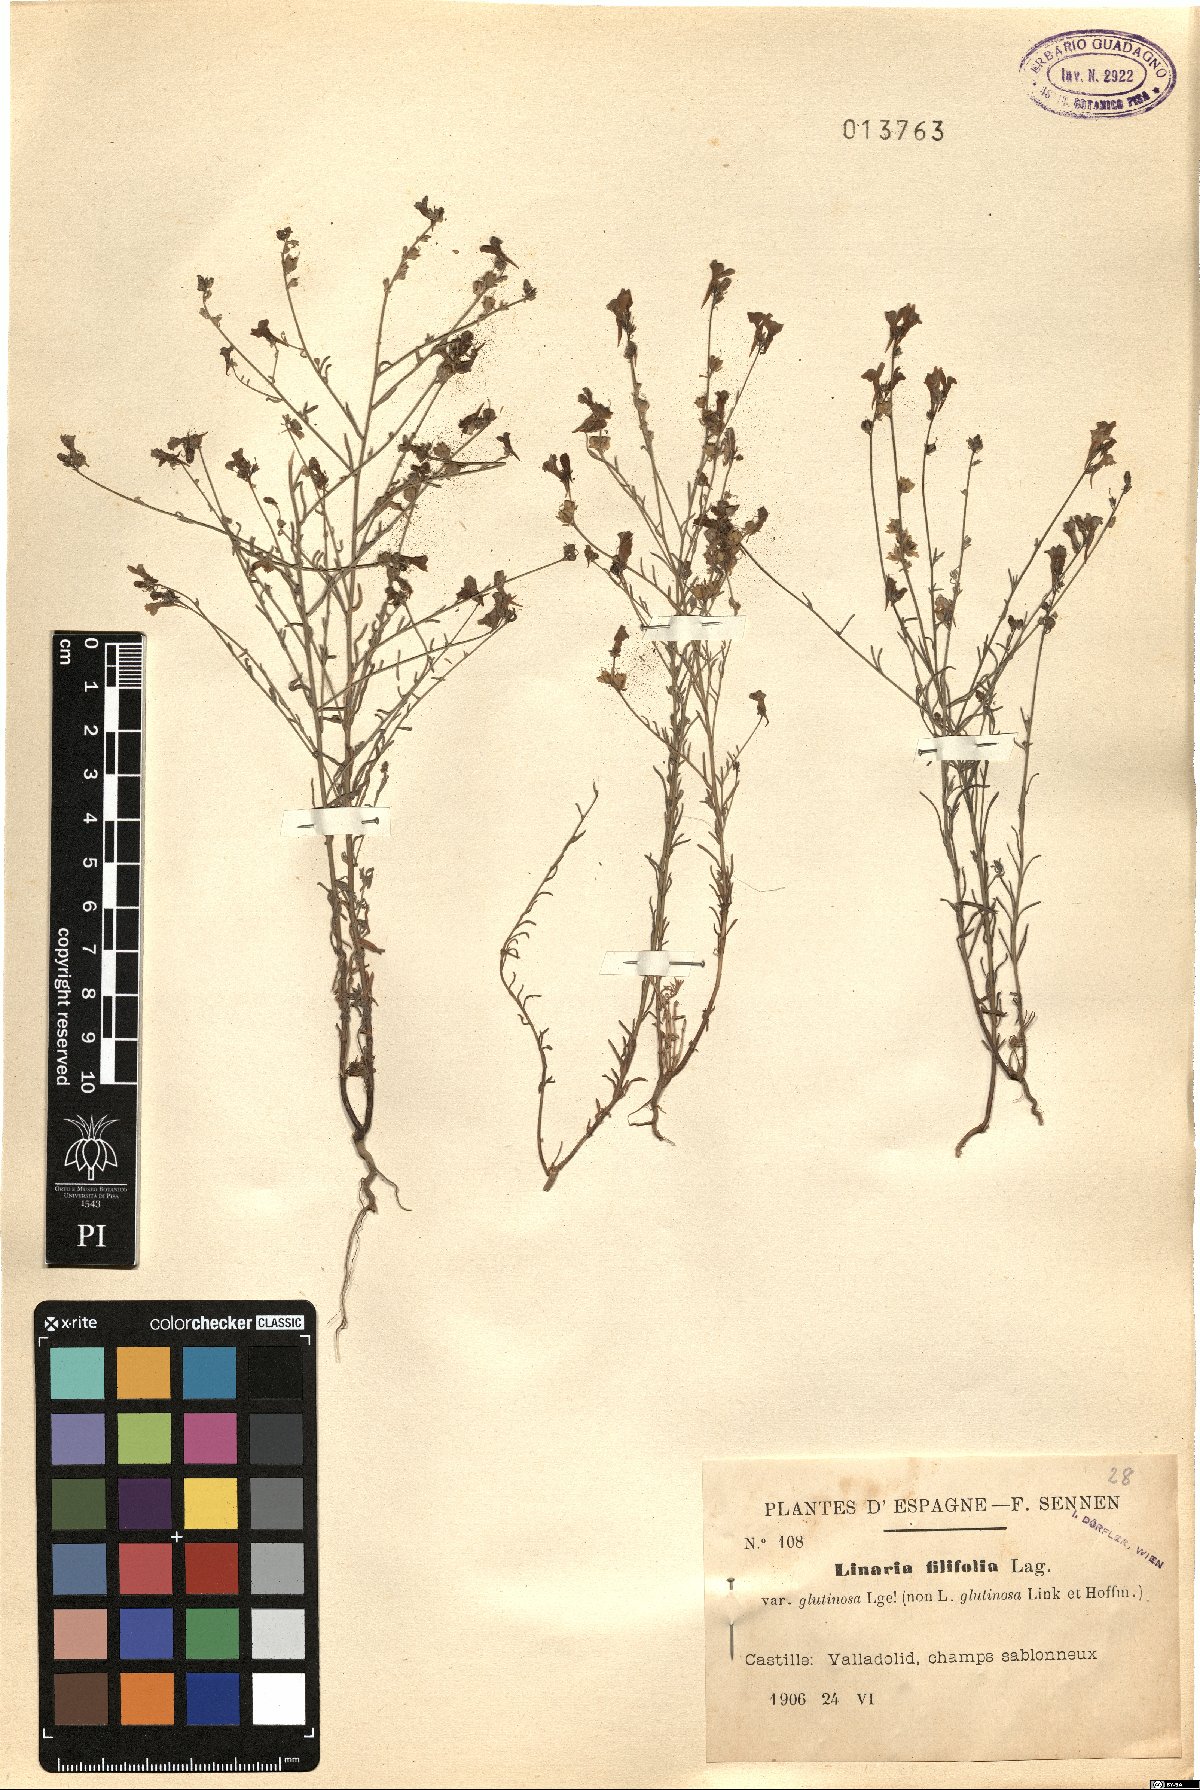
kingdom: Plantae
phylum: Tracheophyta
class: Magnoliopsida
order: Lamiales
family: Plantaginaceae
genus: Linaria
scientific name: Linaria bipunctata
